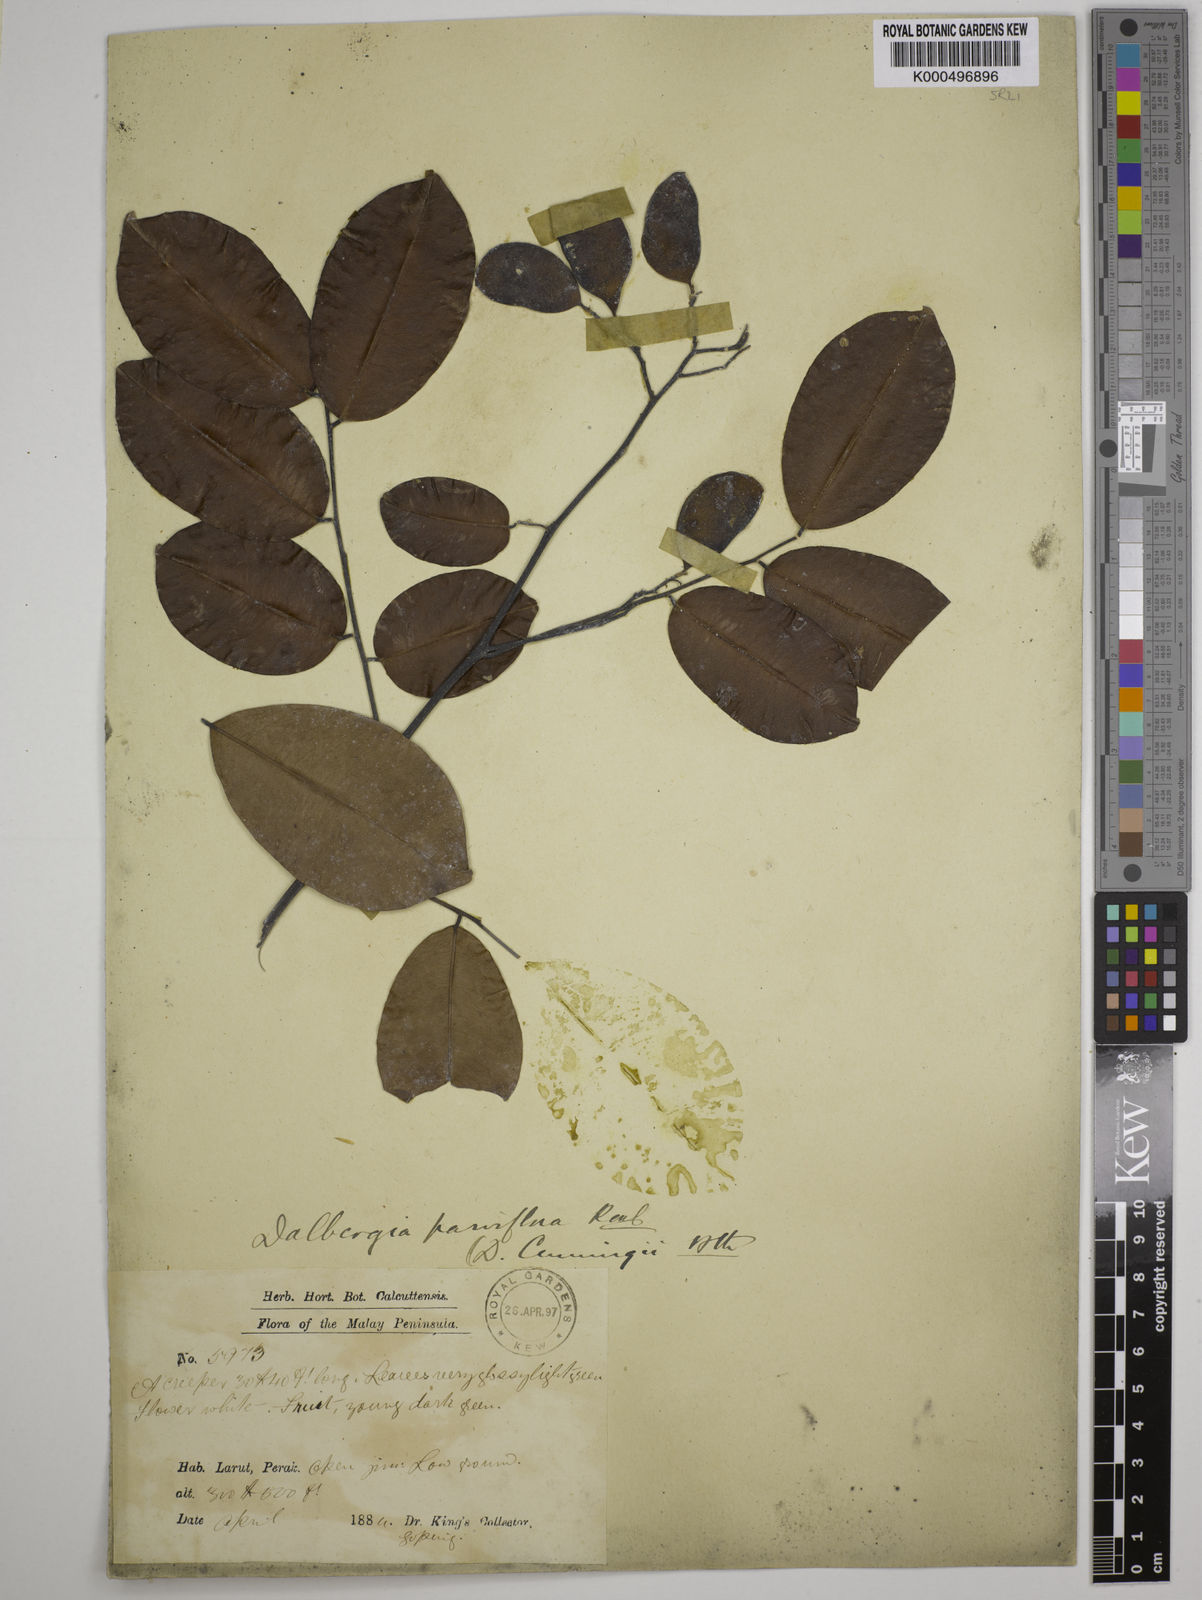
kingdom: Plantae
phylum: Tracheophyta
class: Magnoliopsida
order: Fabales
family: Fabaceae
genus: Dalbergia
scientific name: Dalbergia parviflora
